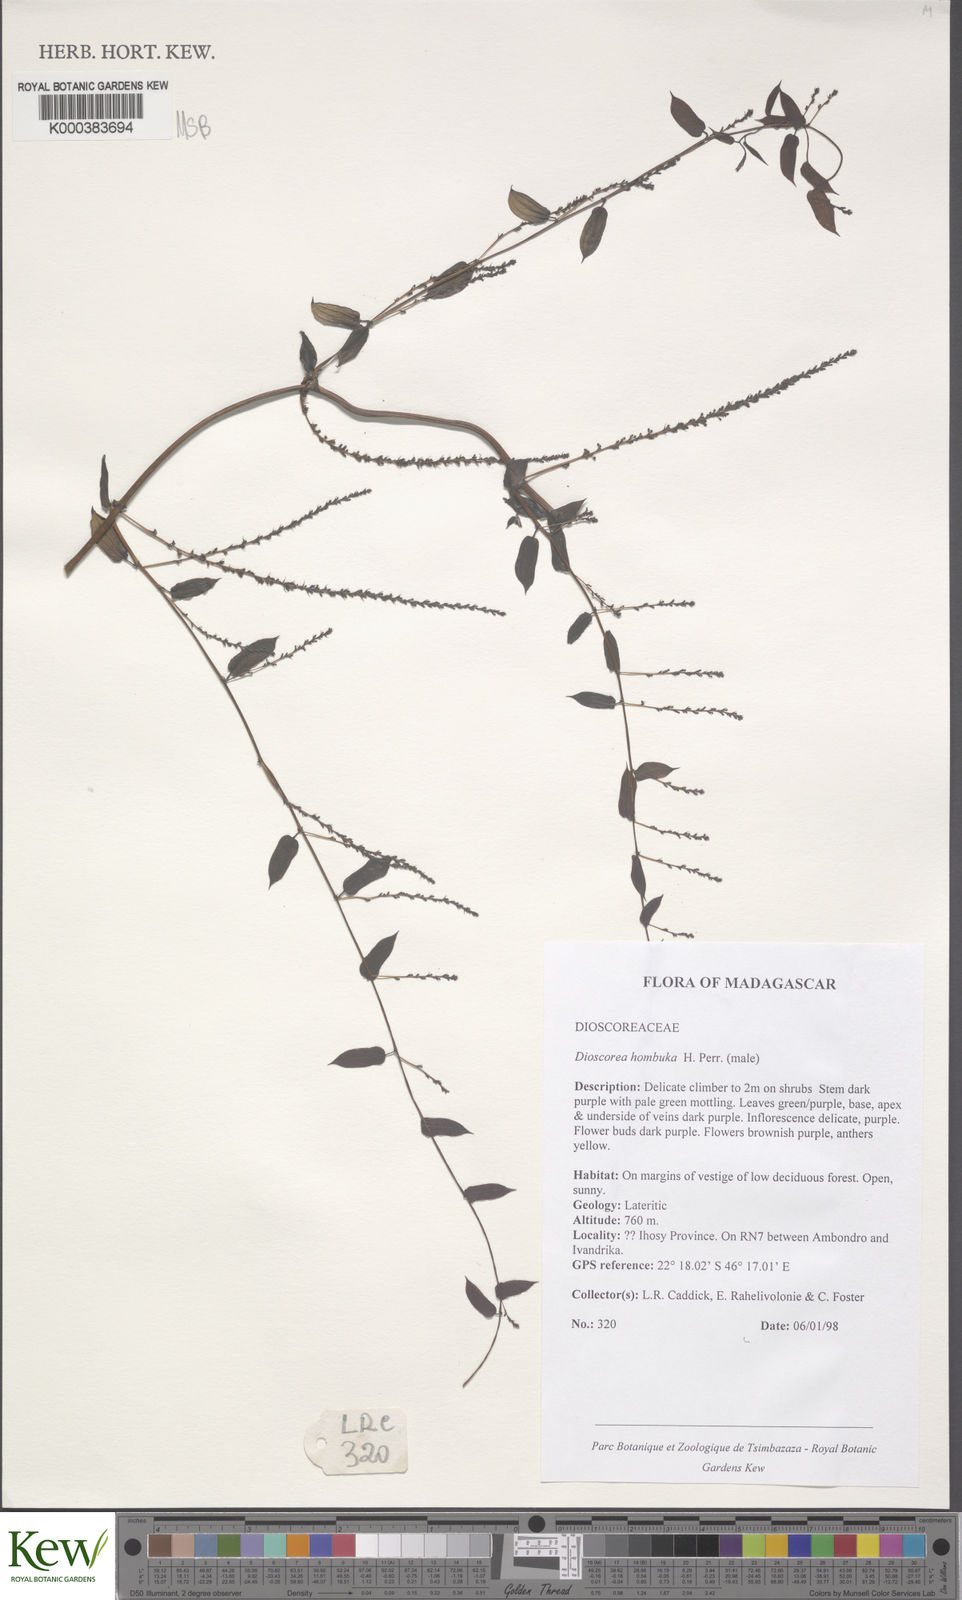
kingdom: Plantae
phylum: Tracheophyta
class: Liliopsida
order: Dioscoreales
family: Dioscoreaceae
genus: Dioscorea
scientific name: Dioscorea
